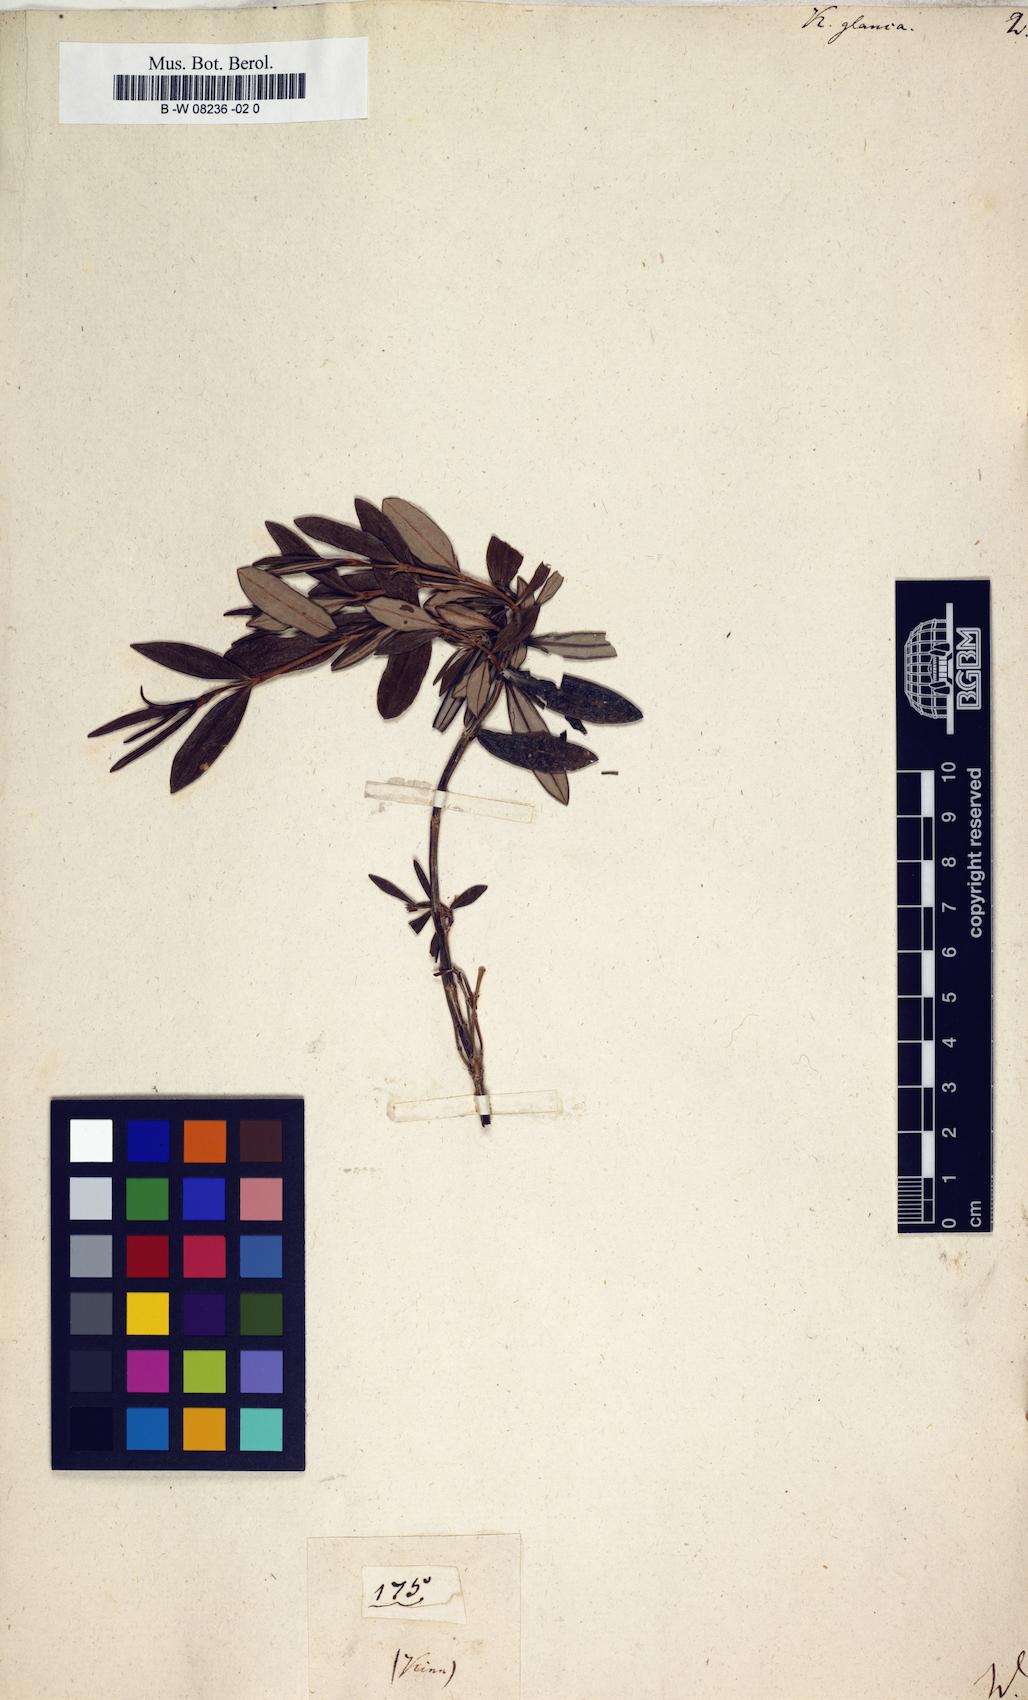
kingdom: Plantae
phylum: Tracheophyta
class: Magnoliopsida
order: Ericales
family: Ericaceae
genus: Kalmia
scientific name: Kalmia polifolia
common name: Bog-laurel
